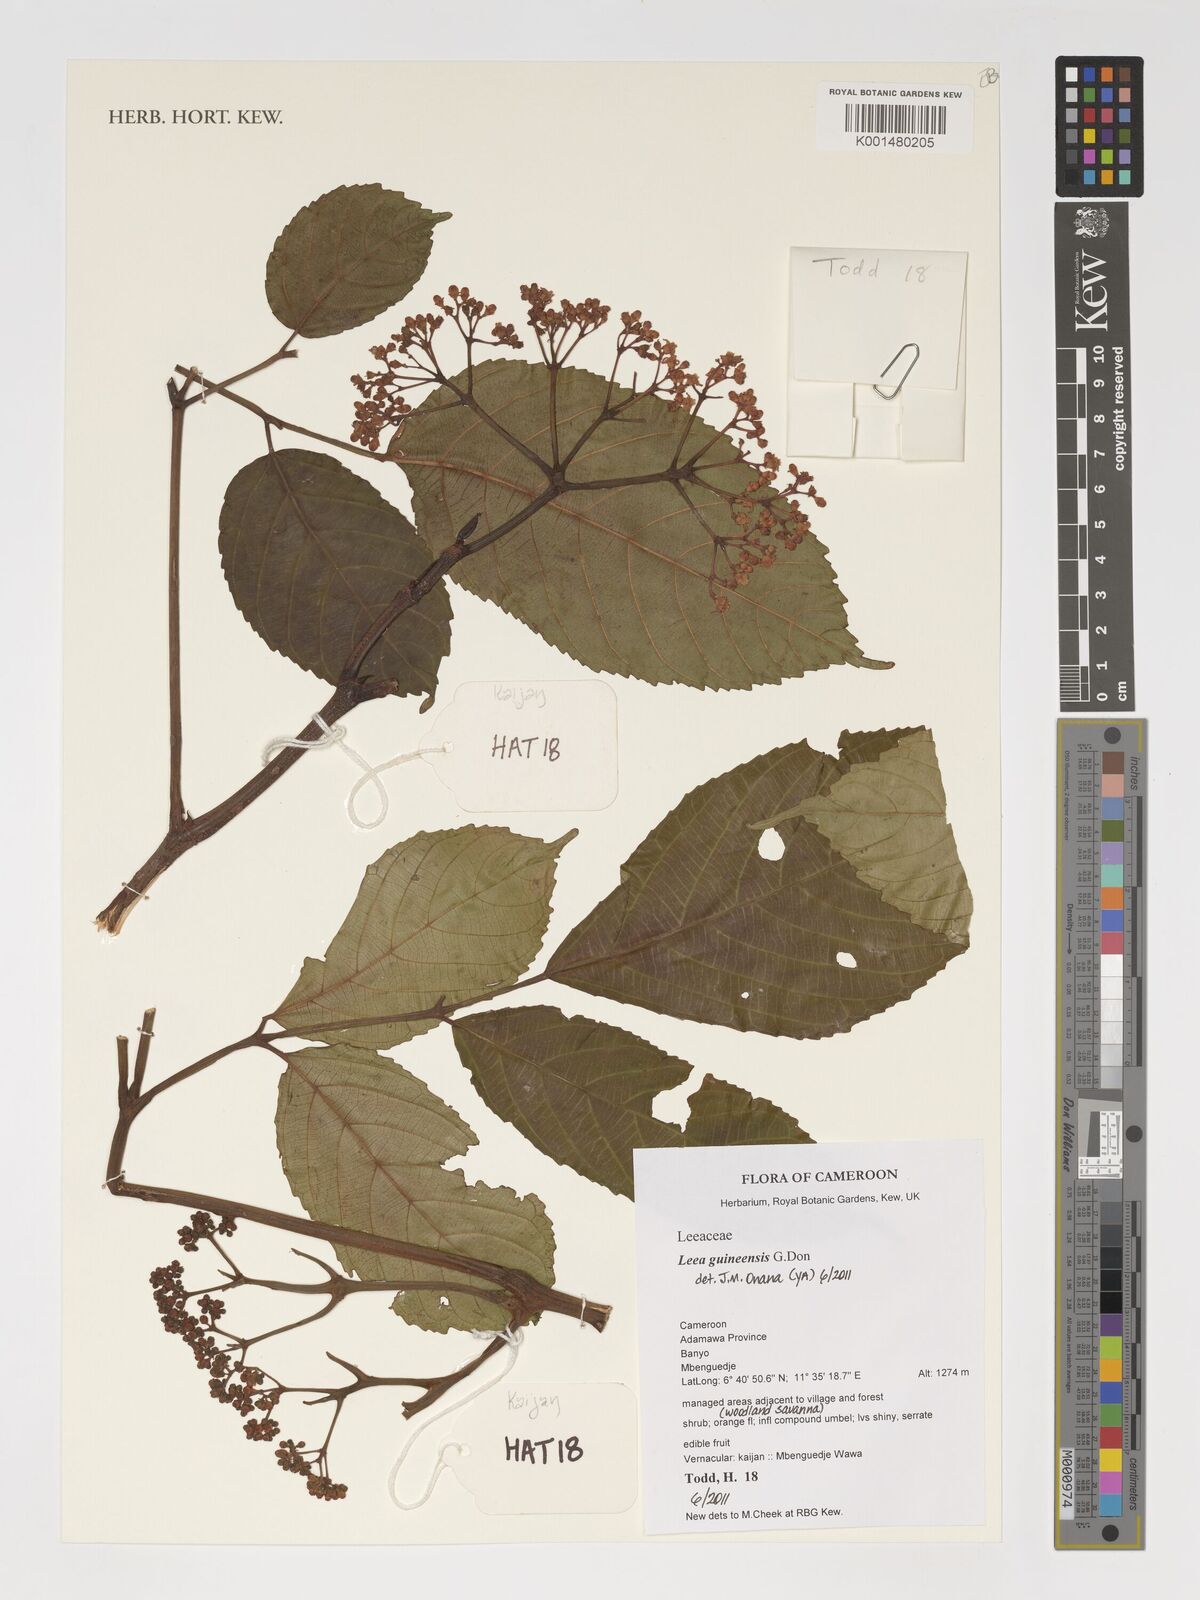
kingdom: Plantae
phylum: Tracheophyta
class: Magnoliopsida
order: Vitales
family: Vitaceae
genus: Leea
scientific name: Leea guineensis
